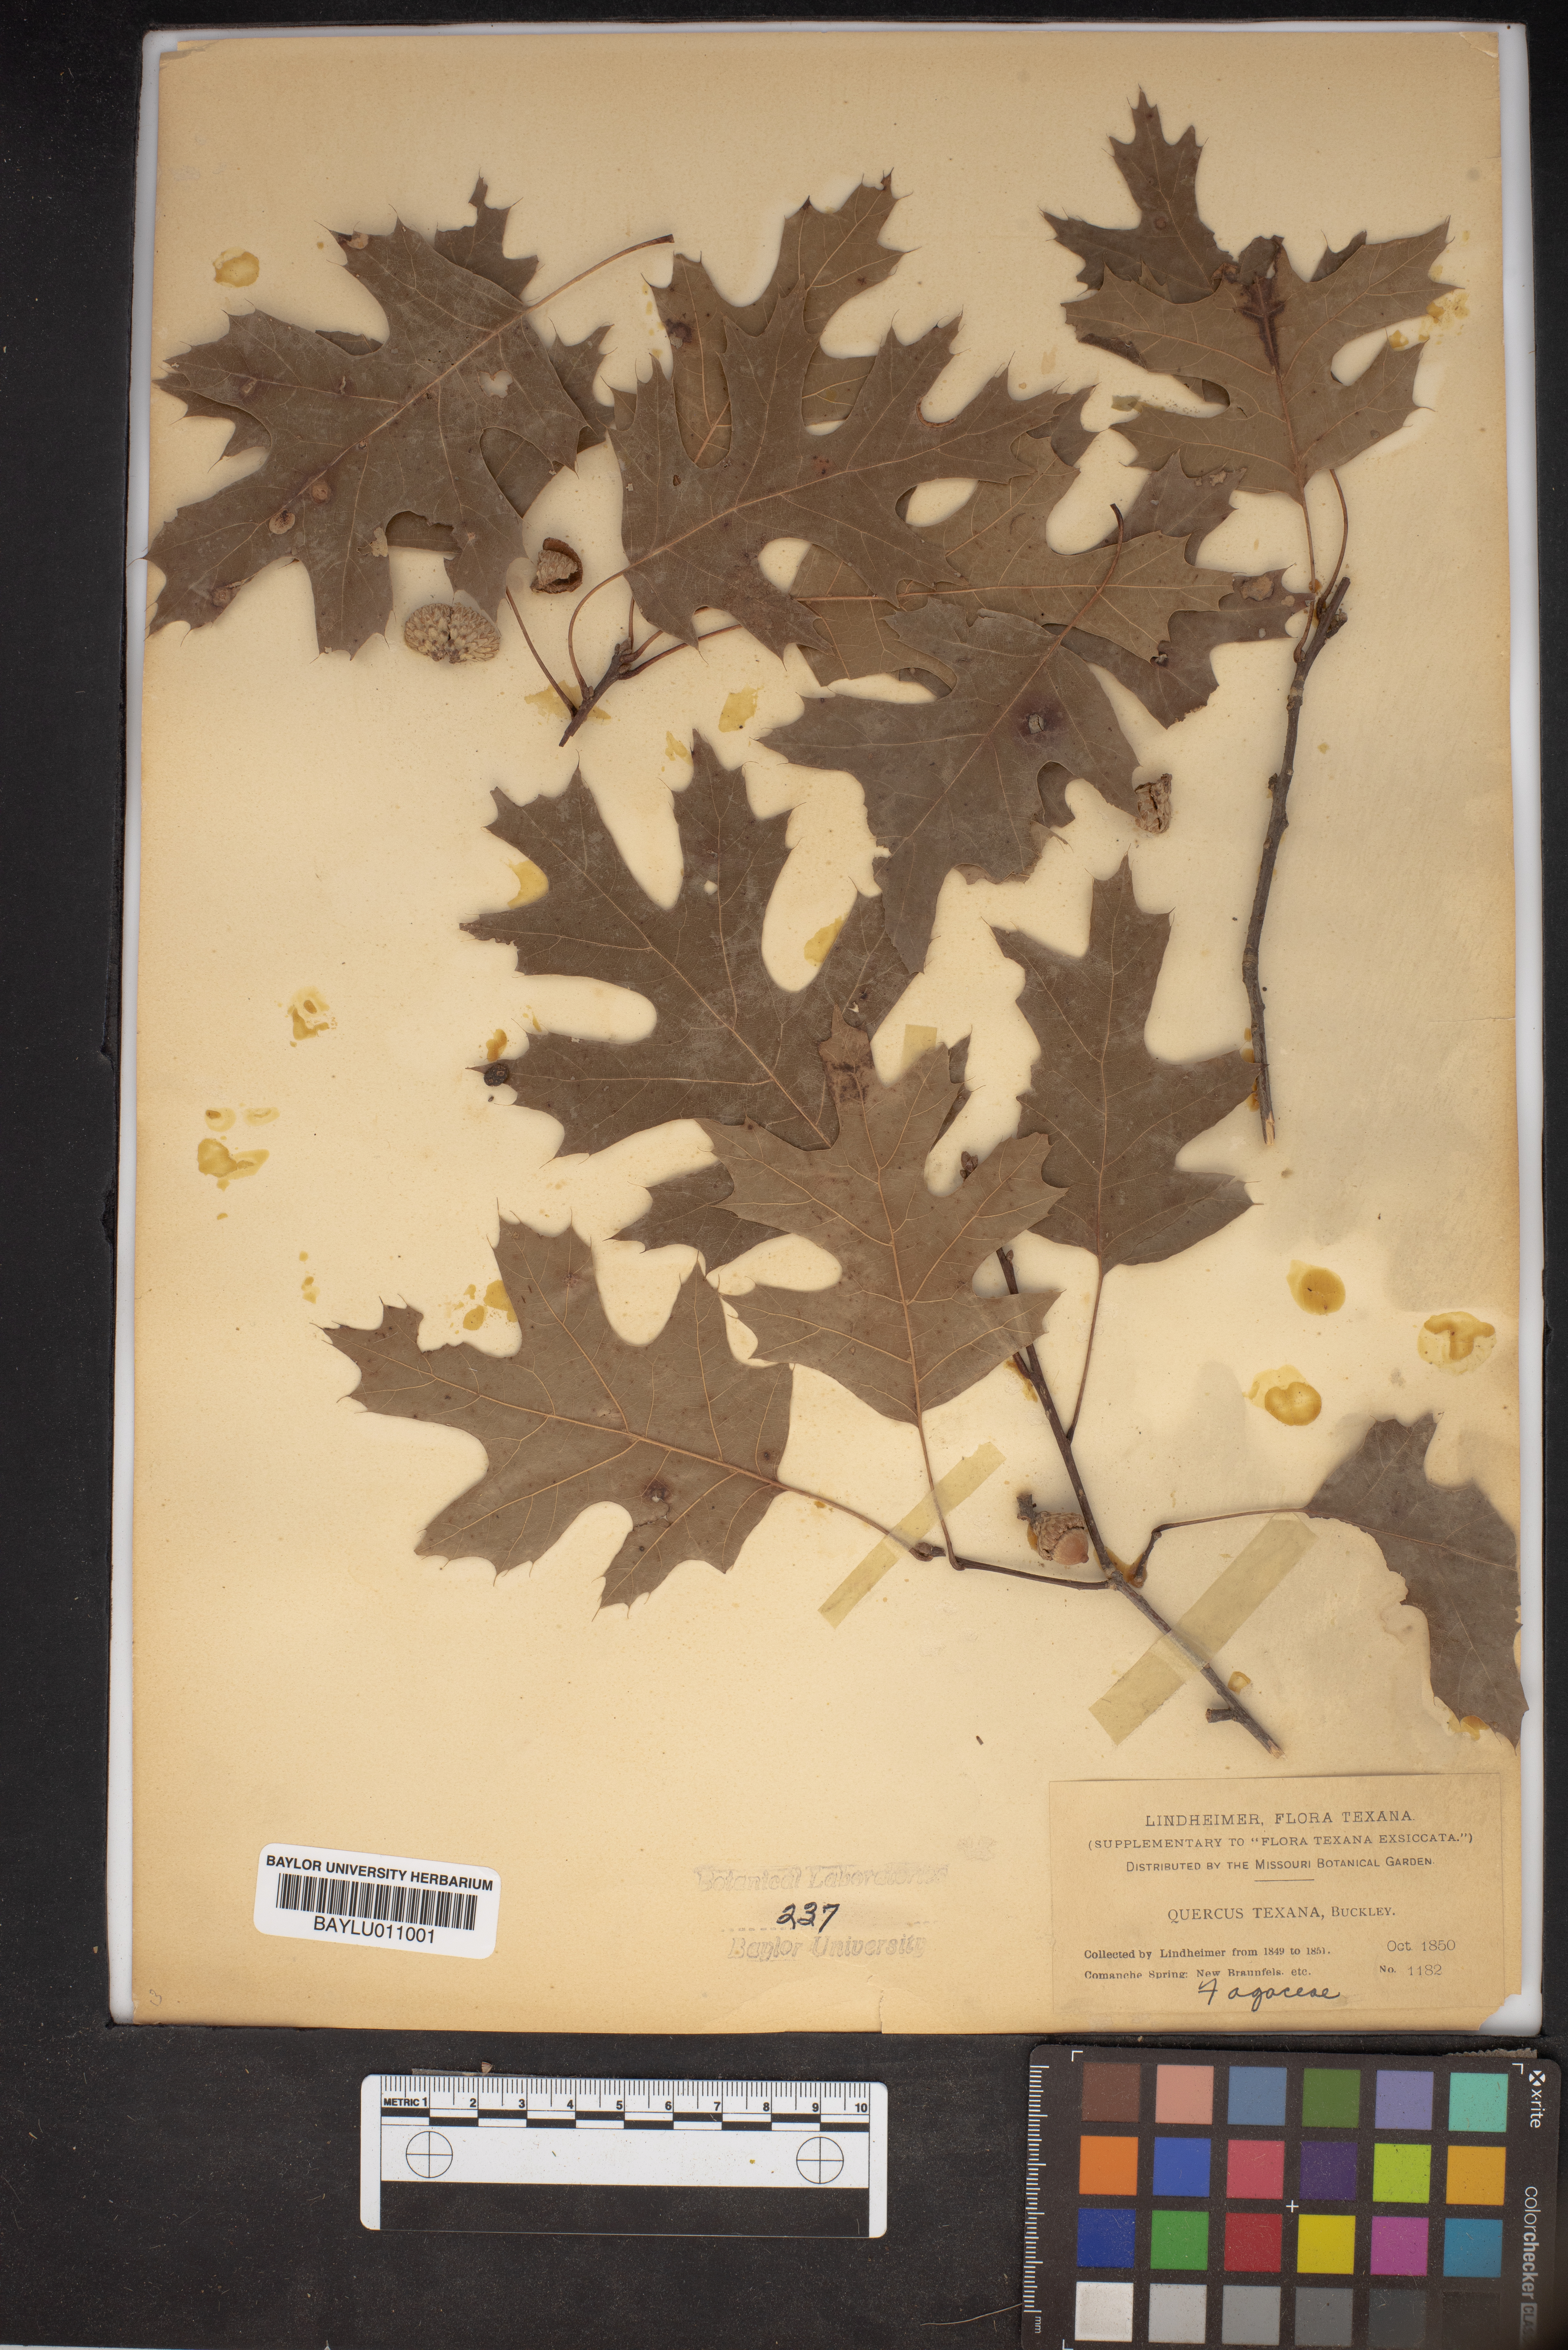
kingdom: Plantae
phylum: Tracheophyta
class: Magnoliopsida
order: Fagales
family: Fagaceae
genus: Quercus
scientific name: Quercus texana
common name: Nuttall oak
